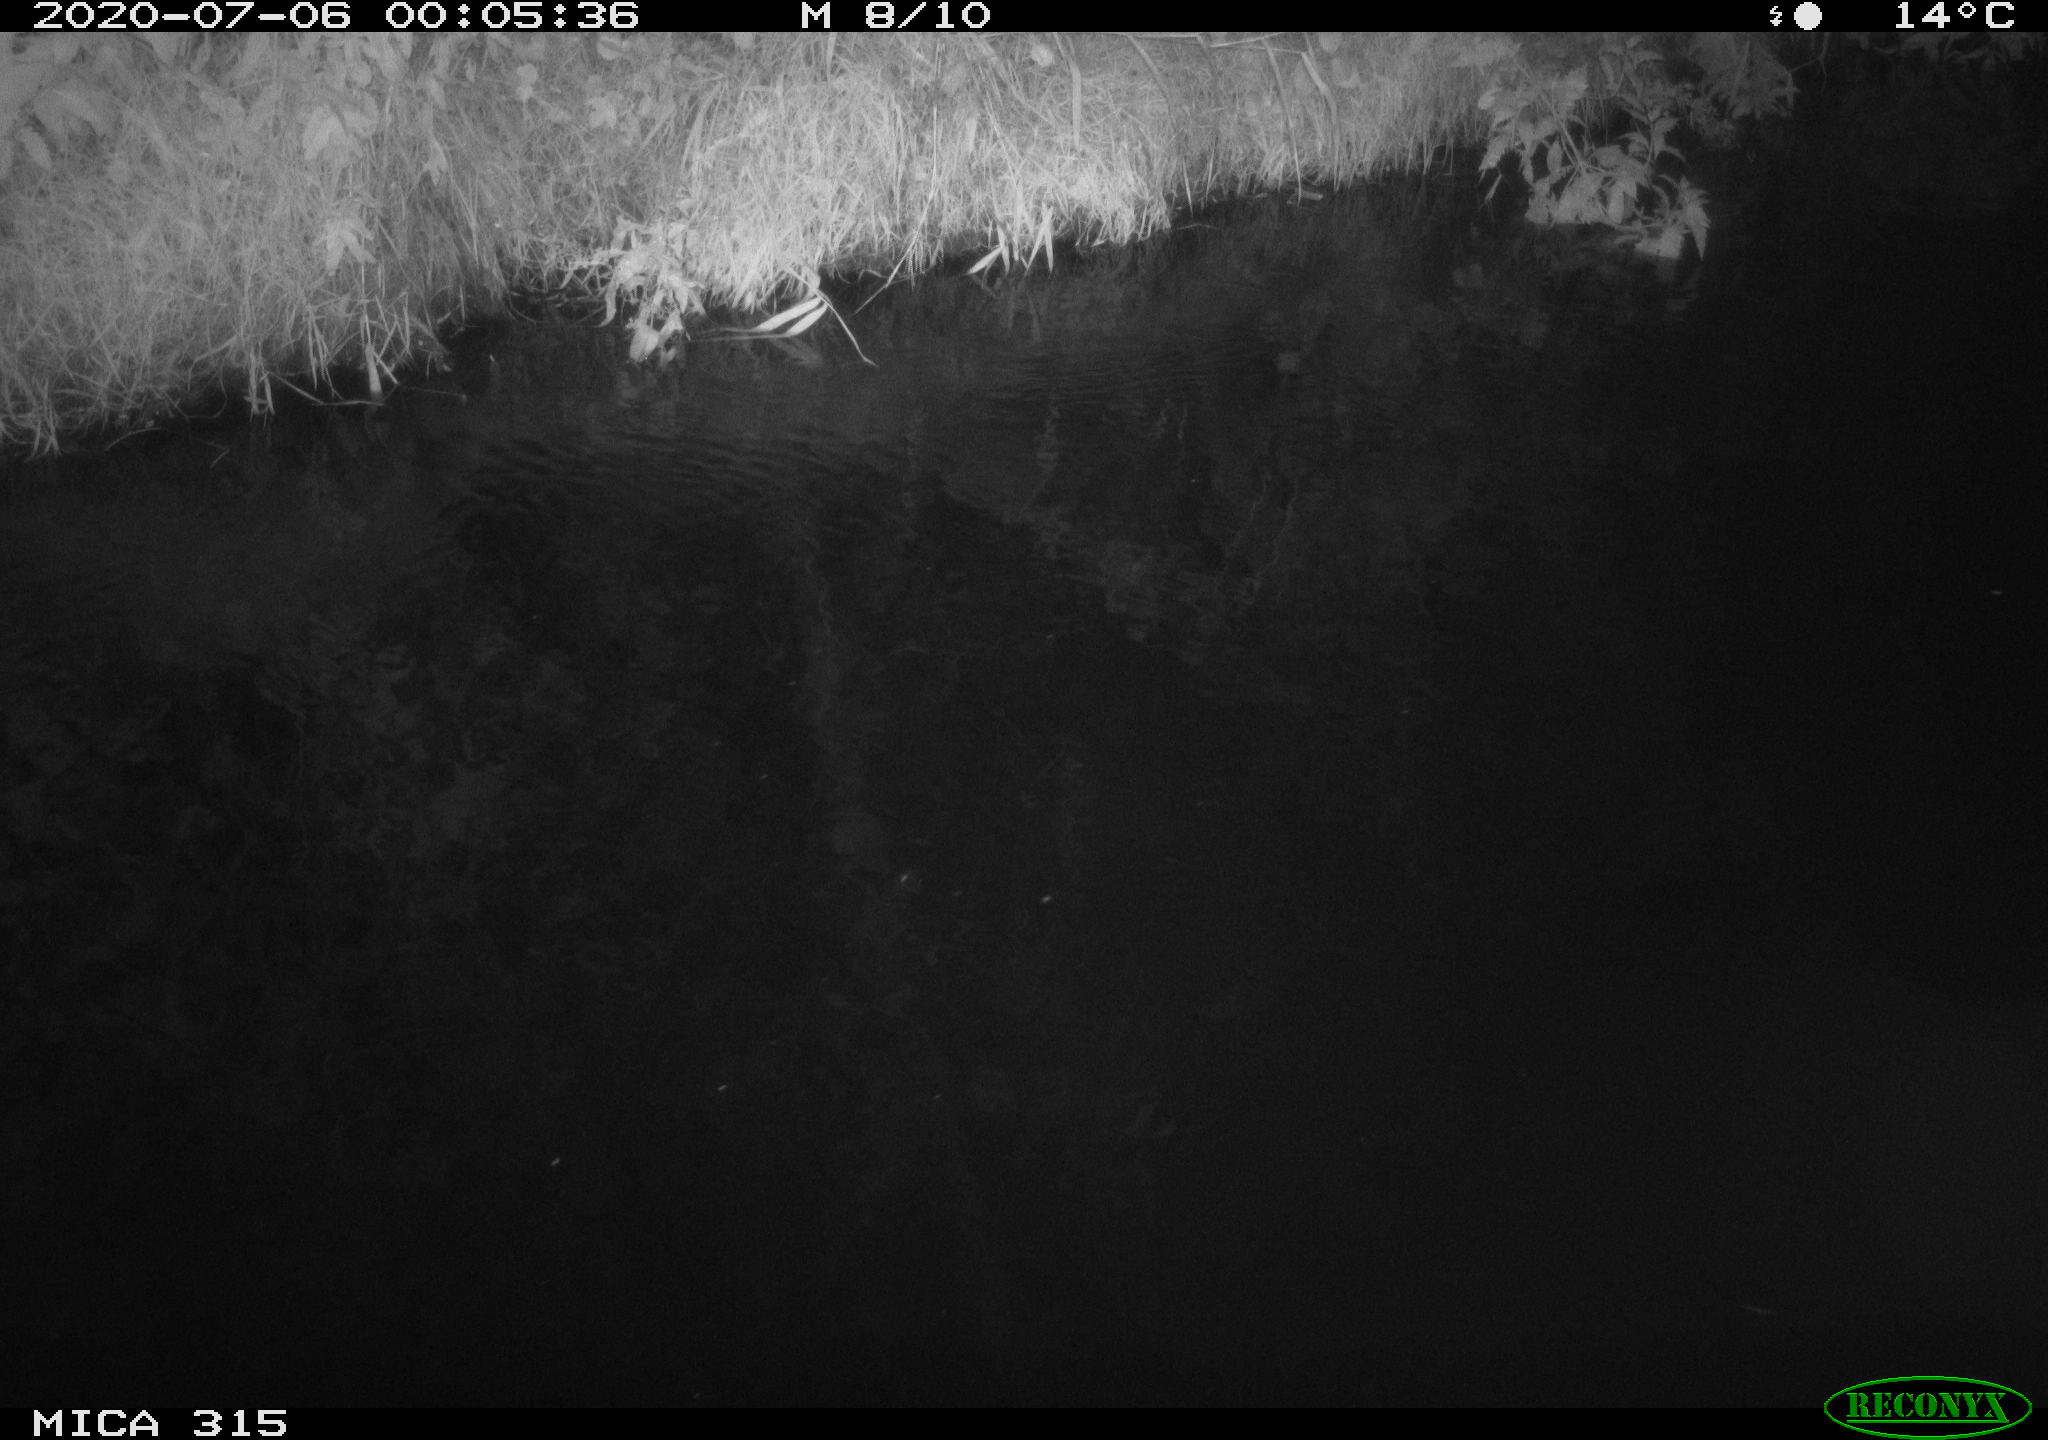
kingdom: Animalia
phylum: Chordata
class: Aves
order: Anseriformes
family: Anatidae
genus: Anas
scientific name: Anas platyrhynchos
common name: Mallard
